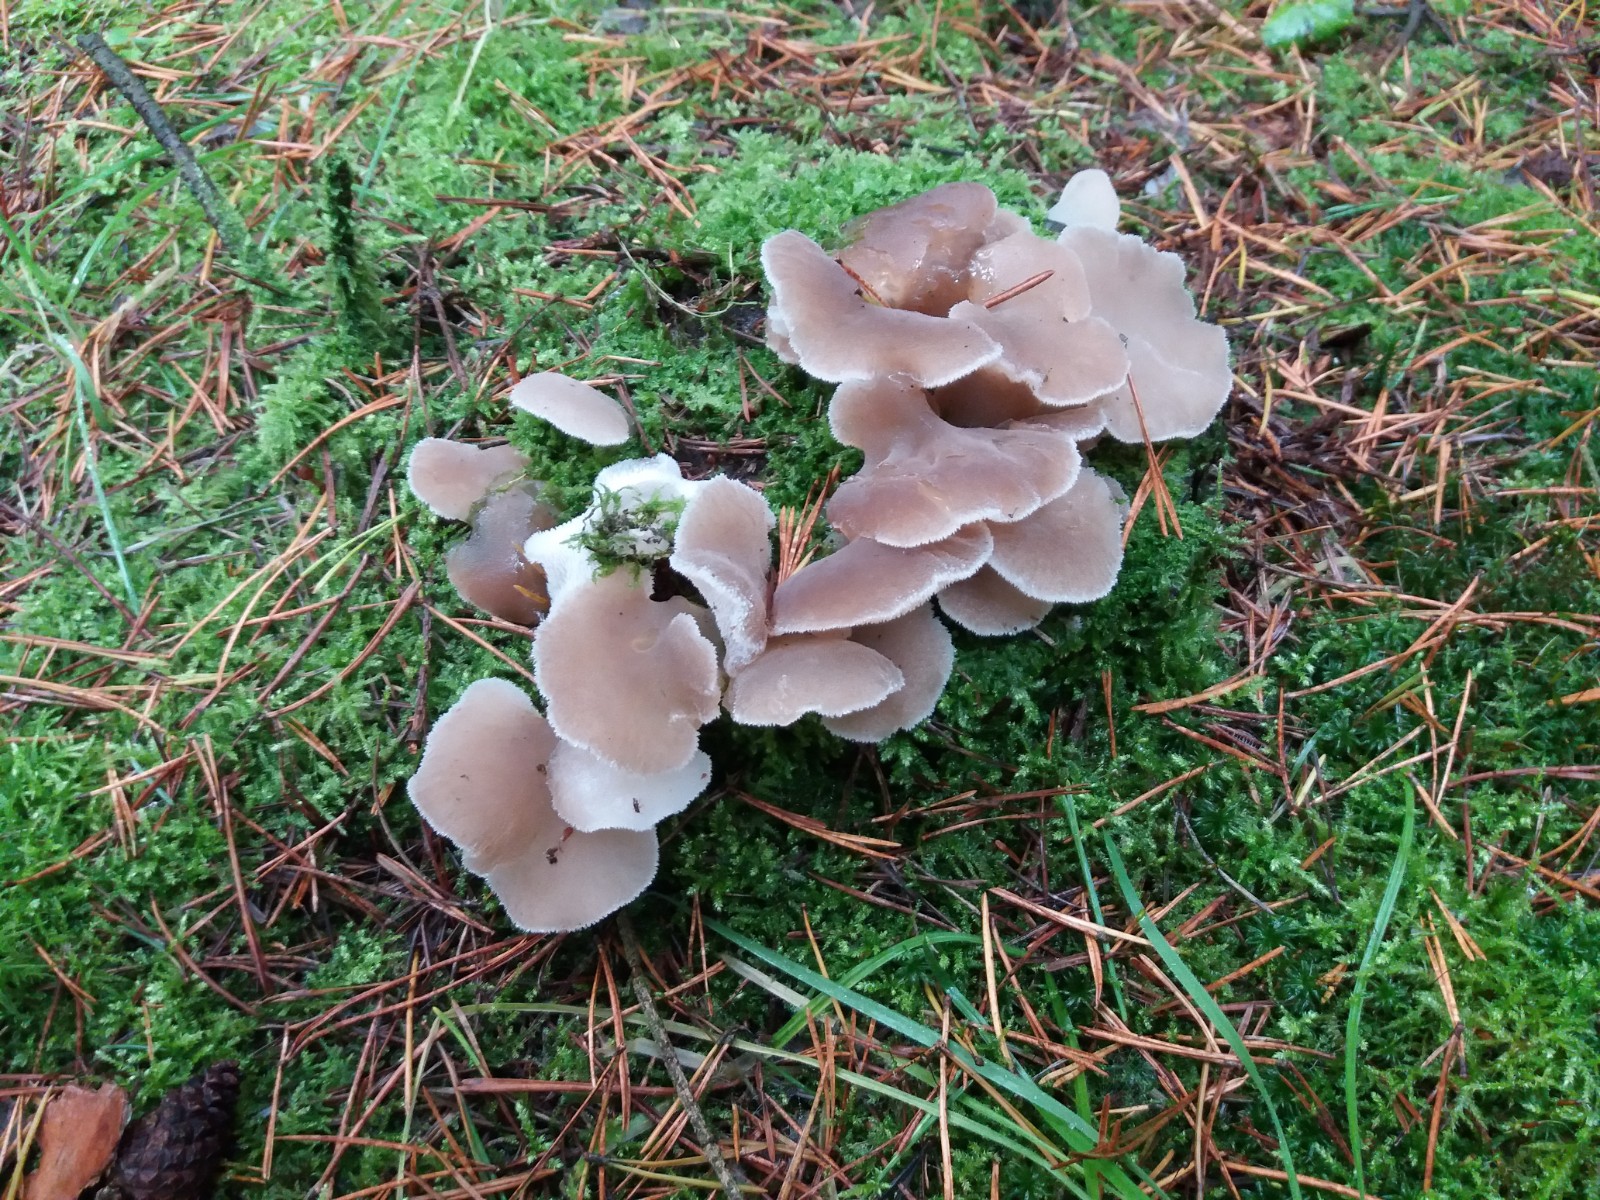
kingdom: Fungi
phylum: Basidiomycota
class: Agaricomycetes
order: Auriculariales
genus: Pseudohydnum
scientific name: Pseudohydnum gelatinosum
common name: bævretand
